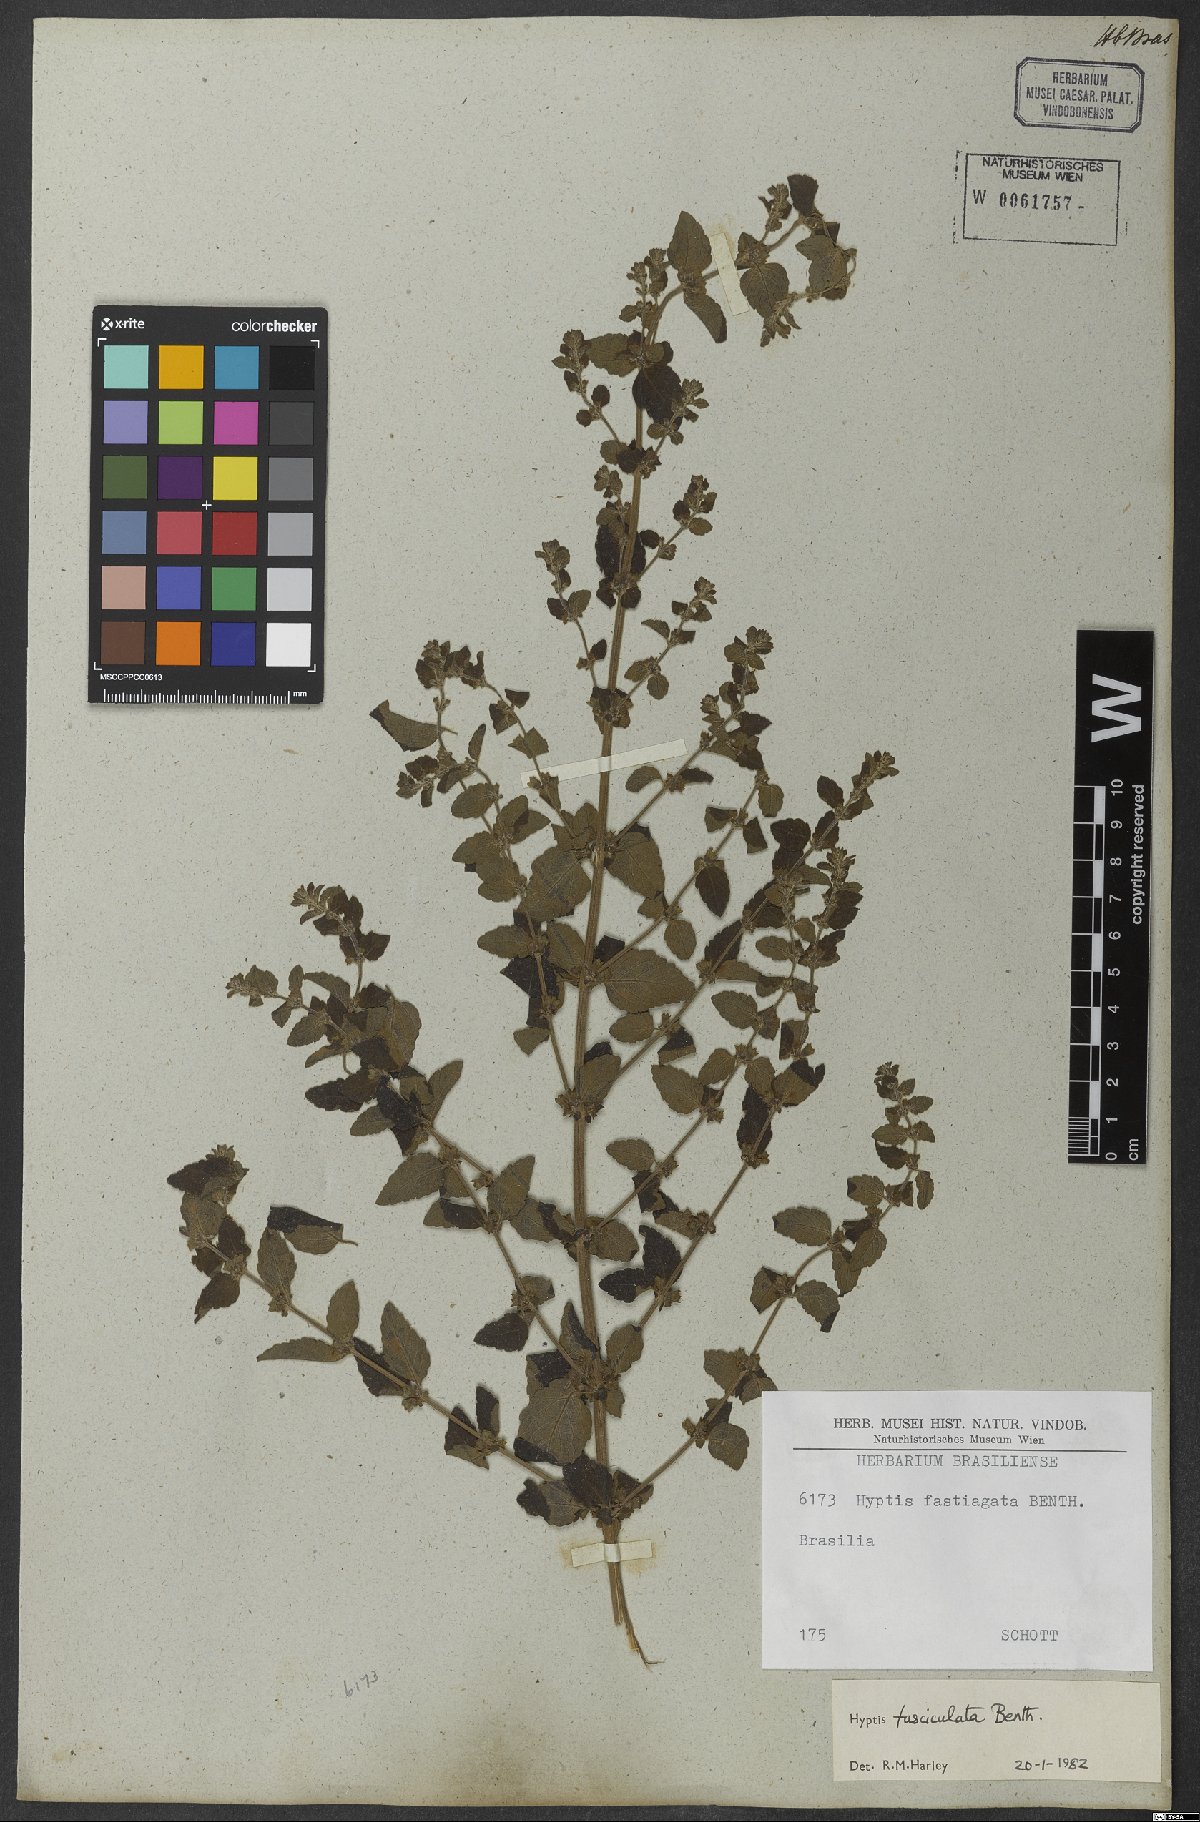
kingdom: Plantae
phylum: Tracheophyta
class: Magnoliopsida
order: Lamiales
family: Lamiaceae
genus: Condea
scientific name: Condea undulata
